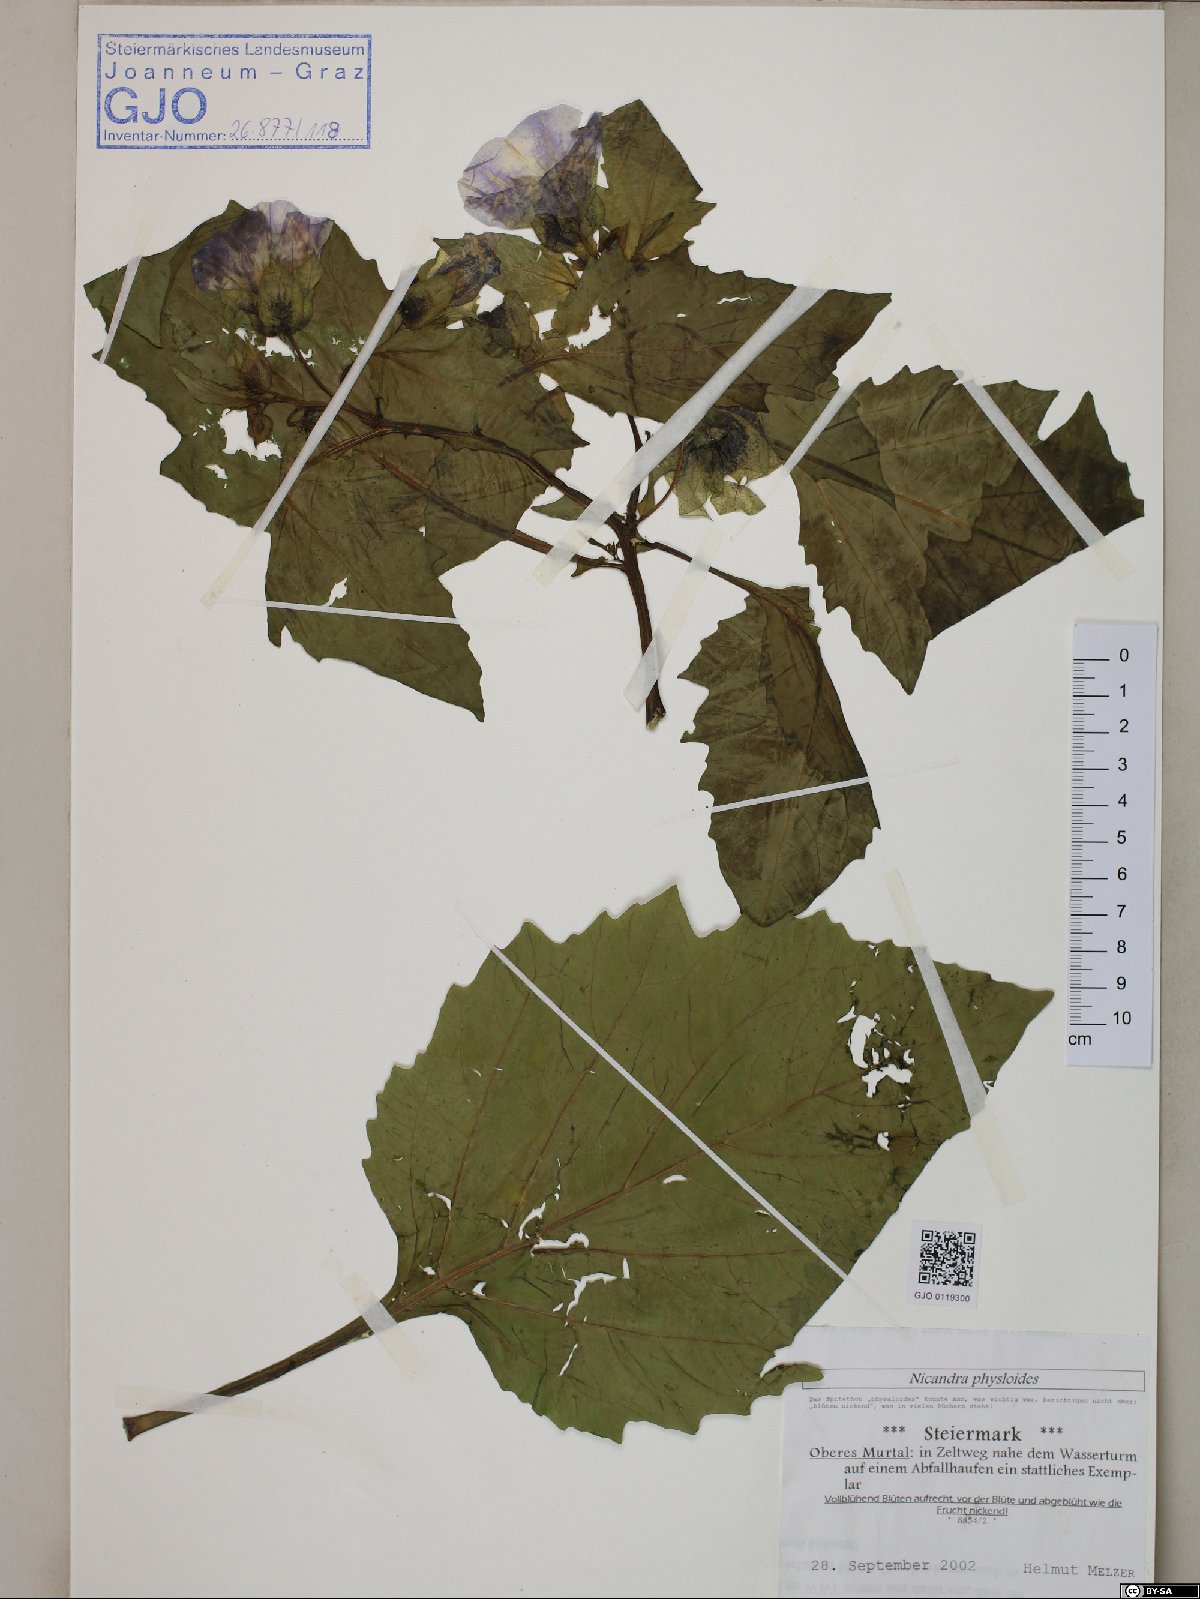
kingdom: Plantae
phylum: Tracheophyta
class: Magnoliopsida
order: Solanales
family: Solanaceae
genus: Nicandra
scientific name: Nicandra physalodes
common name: Apple-of-peru
